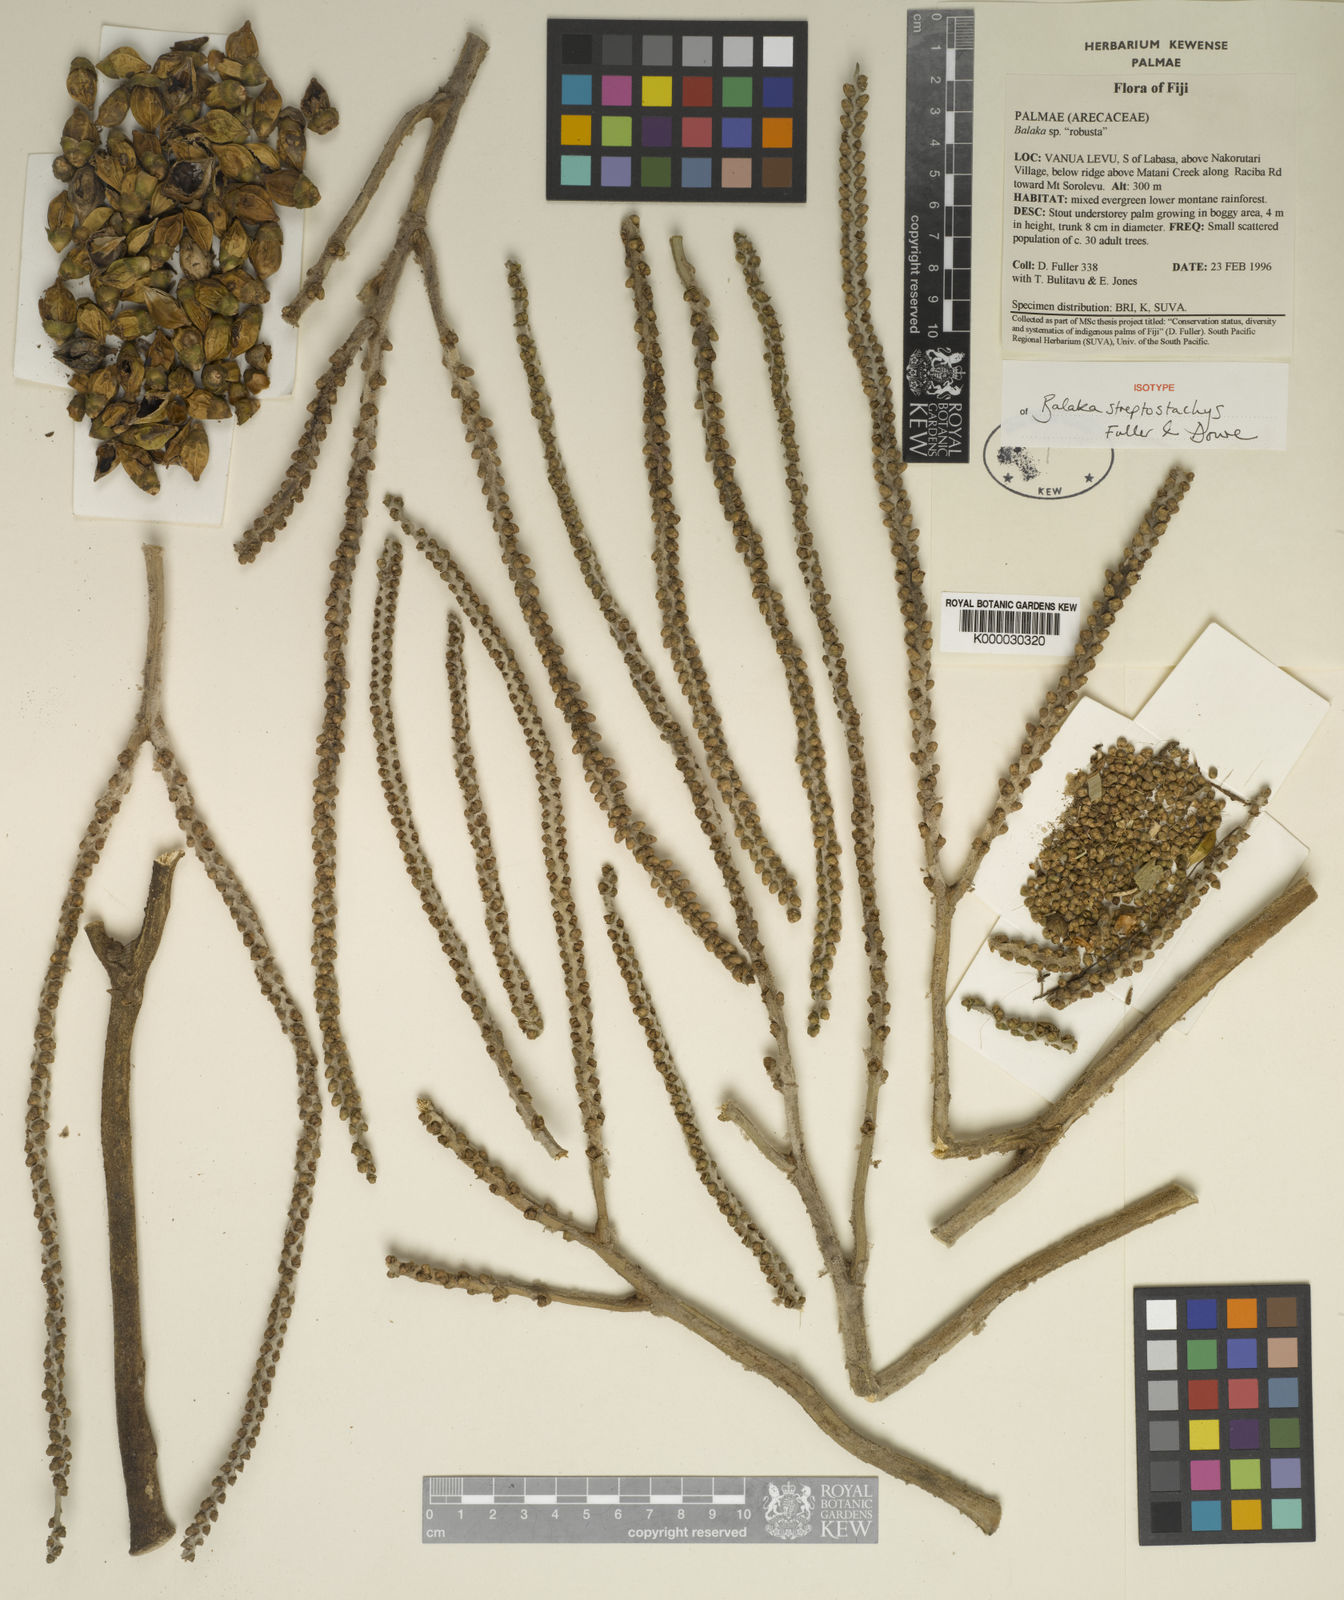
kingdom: Plantae
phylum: Tracheophyta
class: Liliopsida
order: Arecales
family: Arecaceae
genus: Balaka
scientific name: Balaka streptostachys
